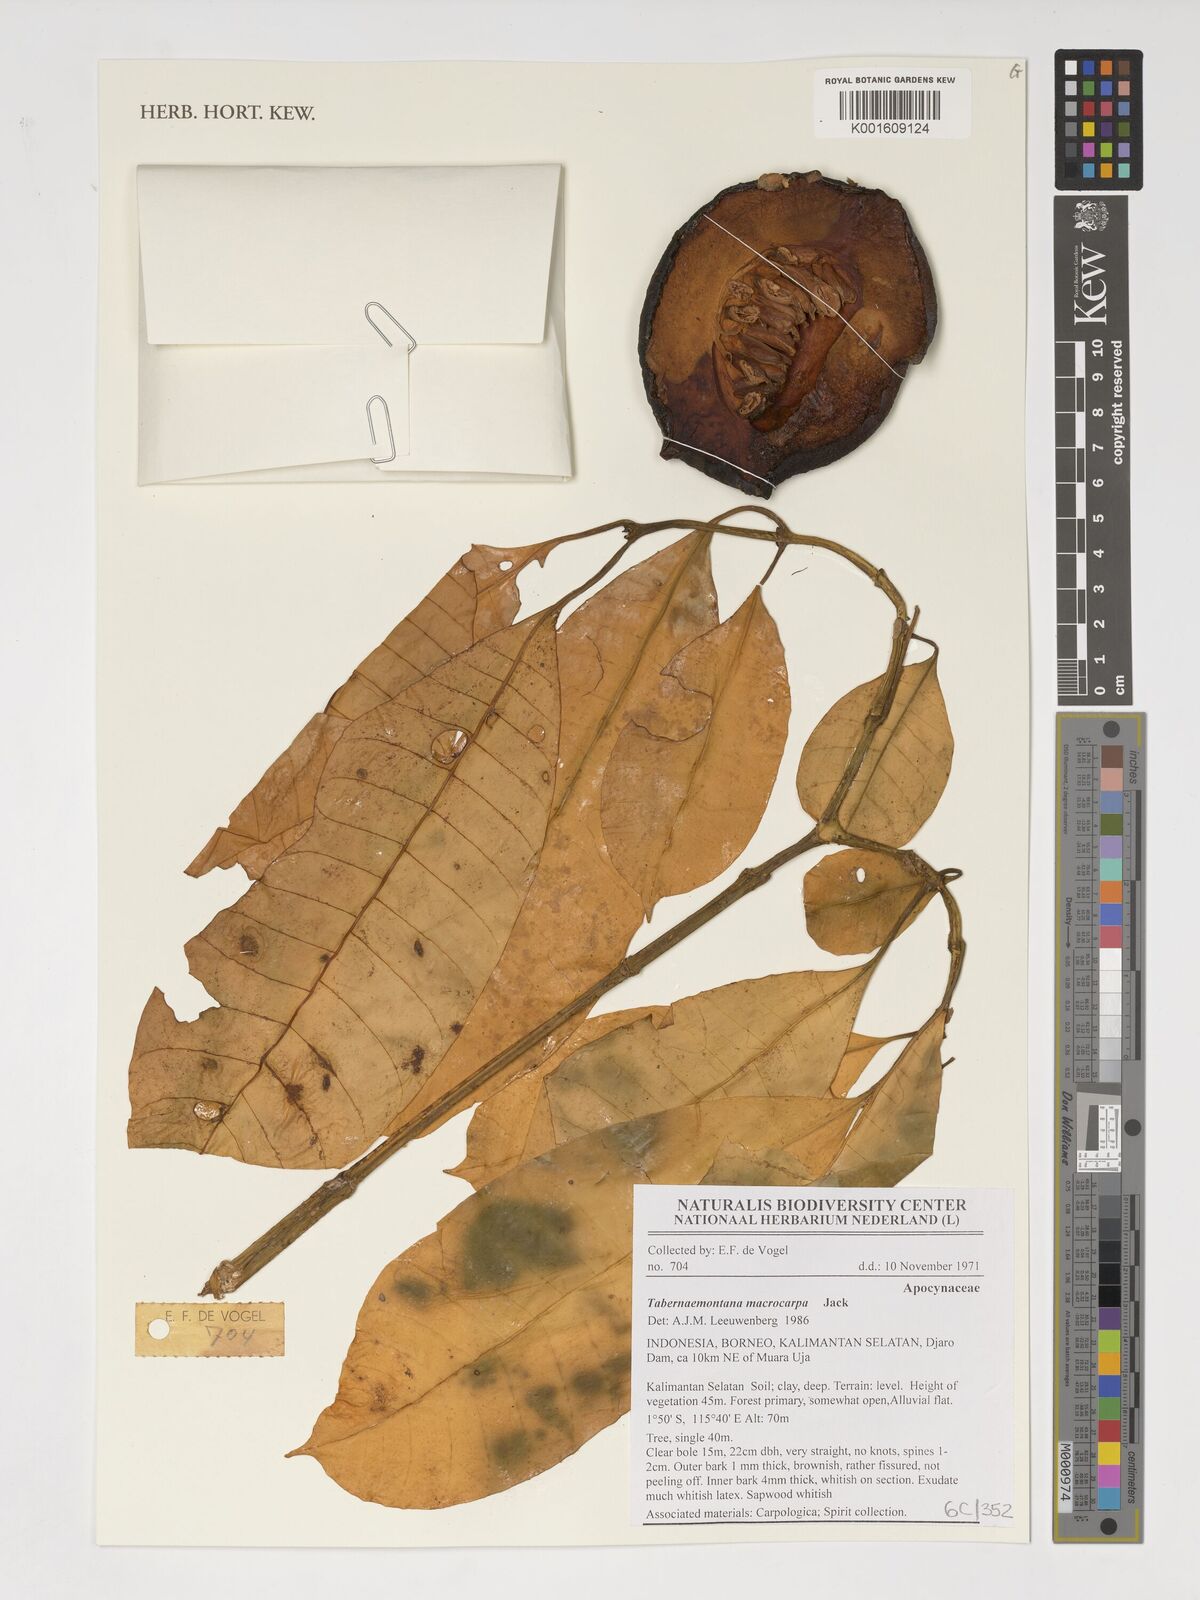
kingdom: Plantae
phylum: Tracheophyta
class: Magnoliopsida
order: Gentianales
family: Apocynaceae
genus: Tabernaemontana
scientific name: Tabernaemontana macrocarpa
